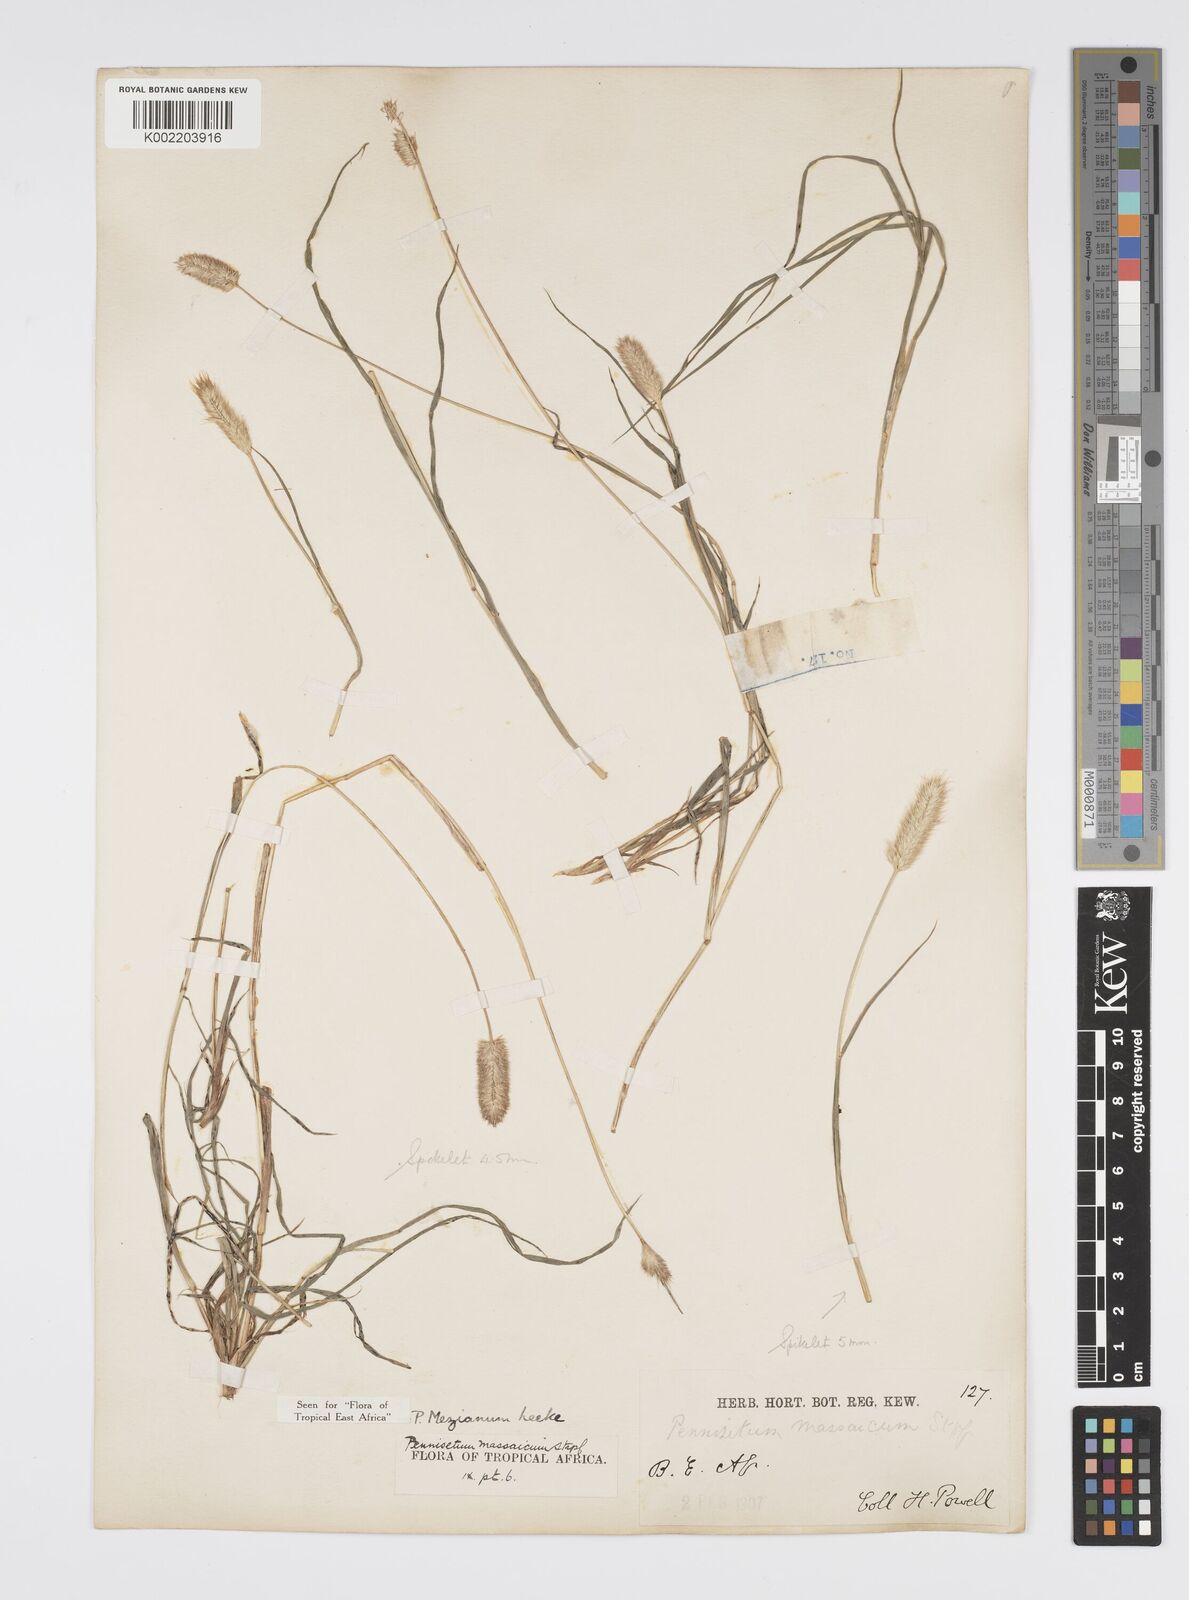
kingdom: Plantae
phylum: Tracheophyta
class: Liliopsida
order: Poales
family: Poaceae
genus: Cenchrus
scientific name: Cenchrus mezianus
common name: Bamboo grass
